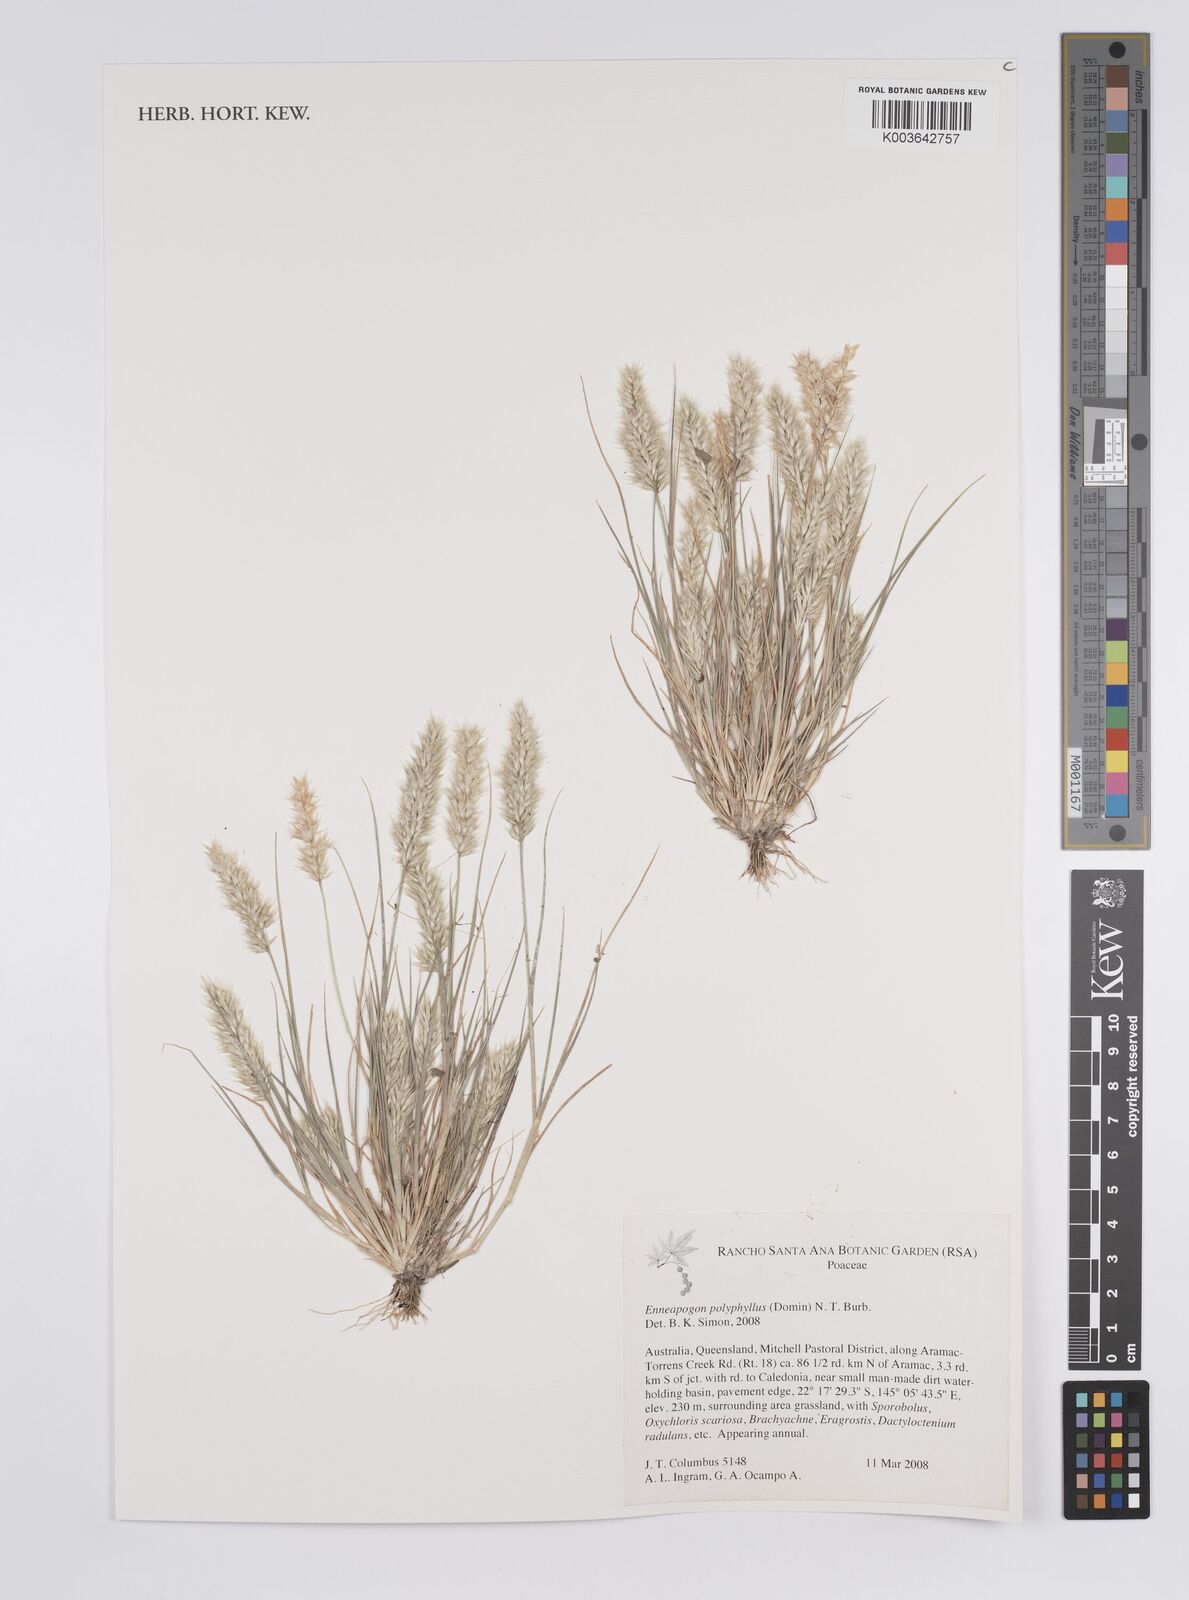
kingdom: Plantae
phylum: Tracheophyta
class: Liliopsida
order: Poales
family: Poaceae
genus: Enneapogon
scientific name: Enneapogon polyphyllus
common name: Leafy nineawn
